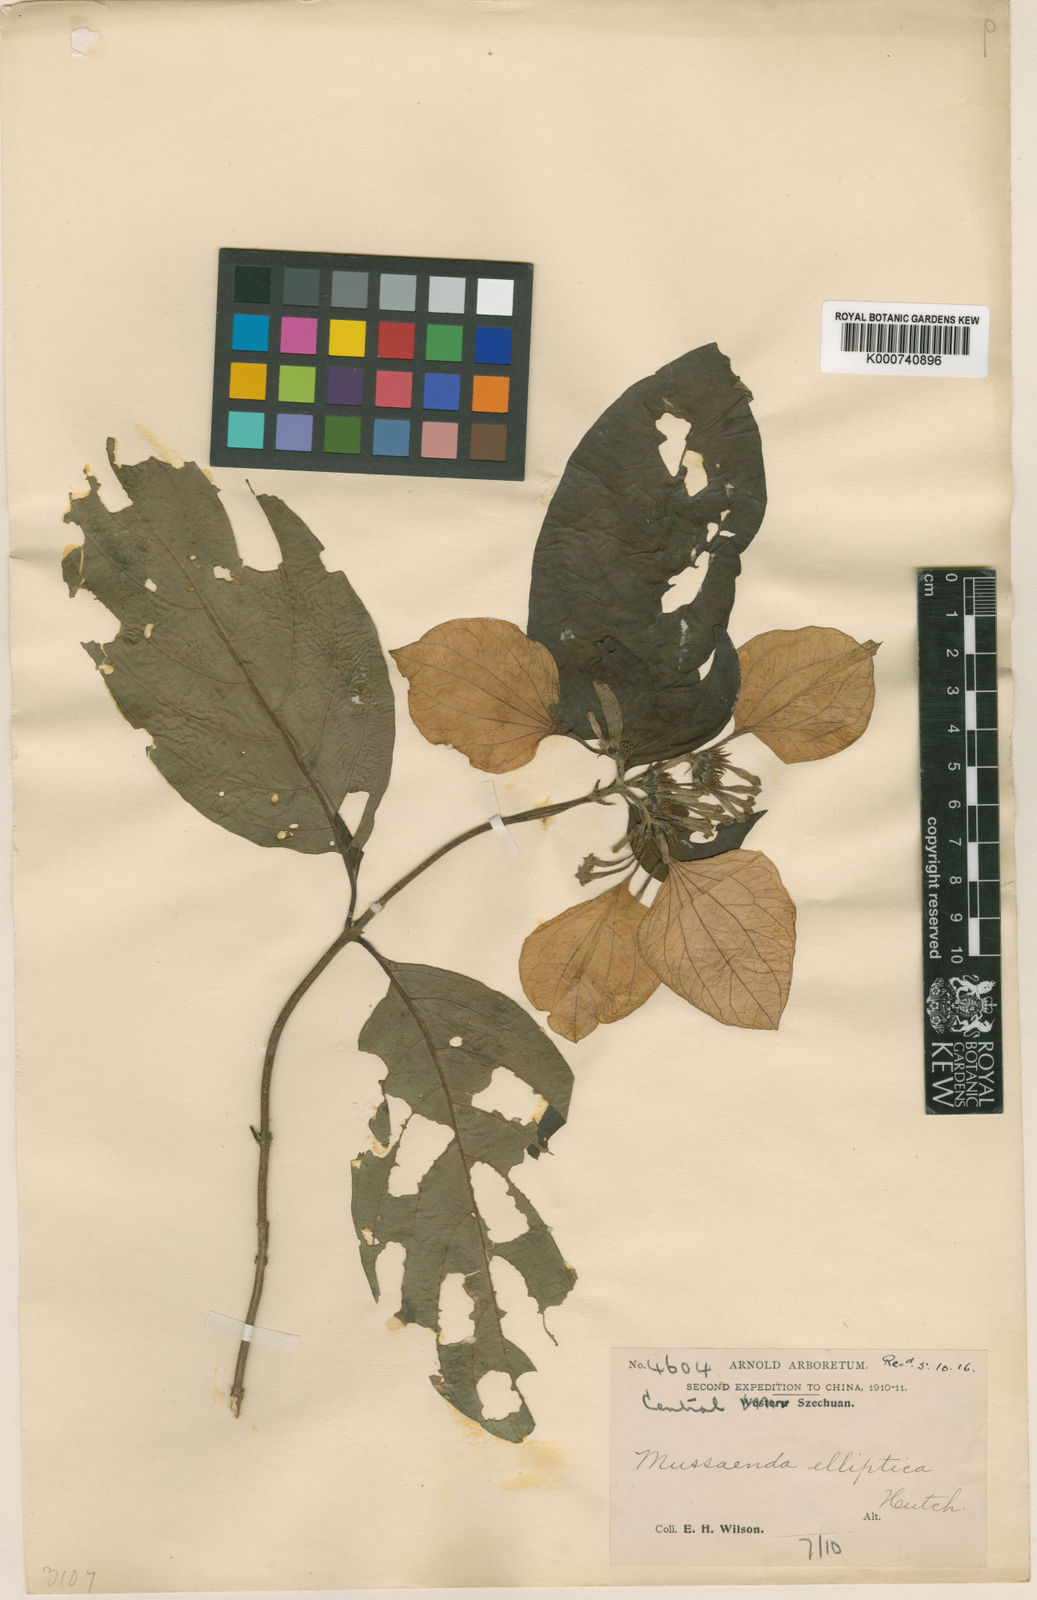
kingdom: Plantae
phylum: Tracheophyta
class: Magnoliopsida
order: Gentianales
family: Rubiaceae
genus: Mussaenda
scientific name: Mussaenda elliptica
